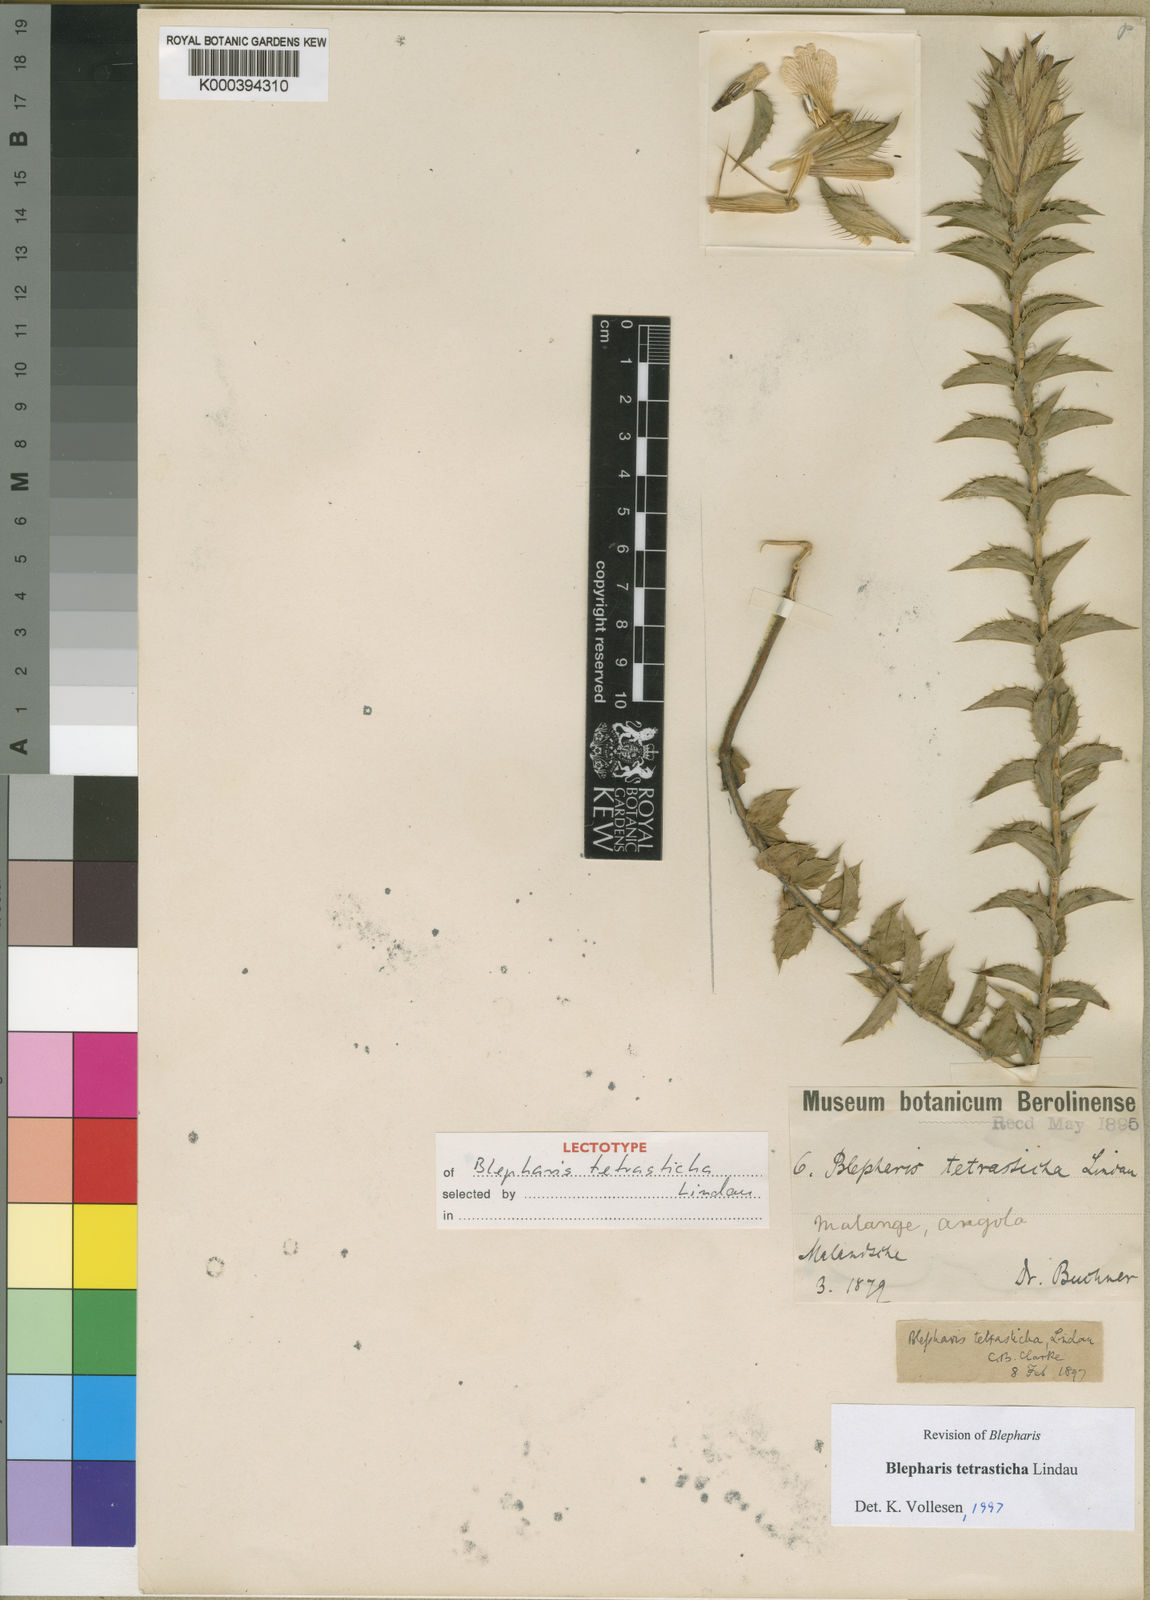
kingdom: Plantae
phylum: Tracheophyta
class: Magnoliopsida
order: Lamiales
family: Acanthaceae
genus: Blepharis
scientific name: Blepharis tetrasticha
